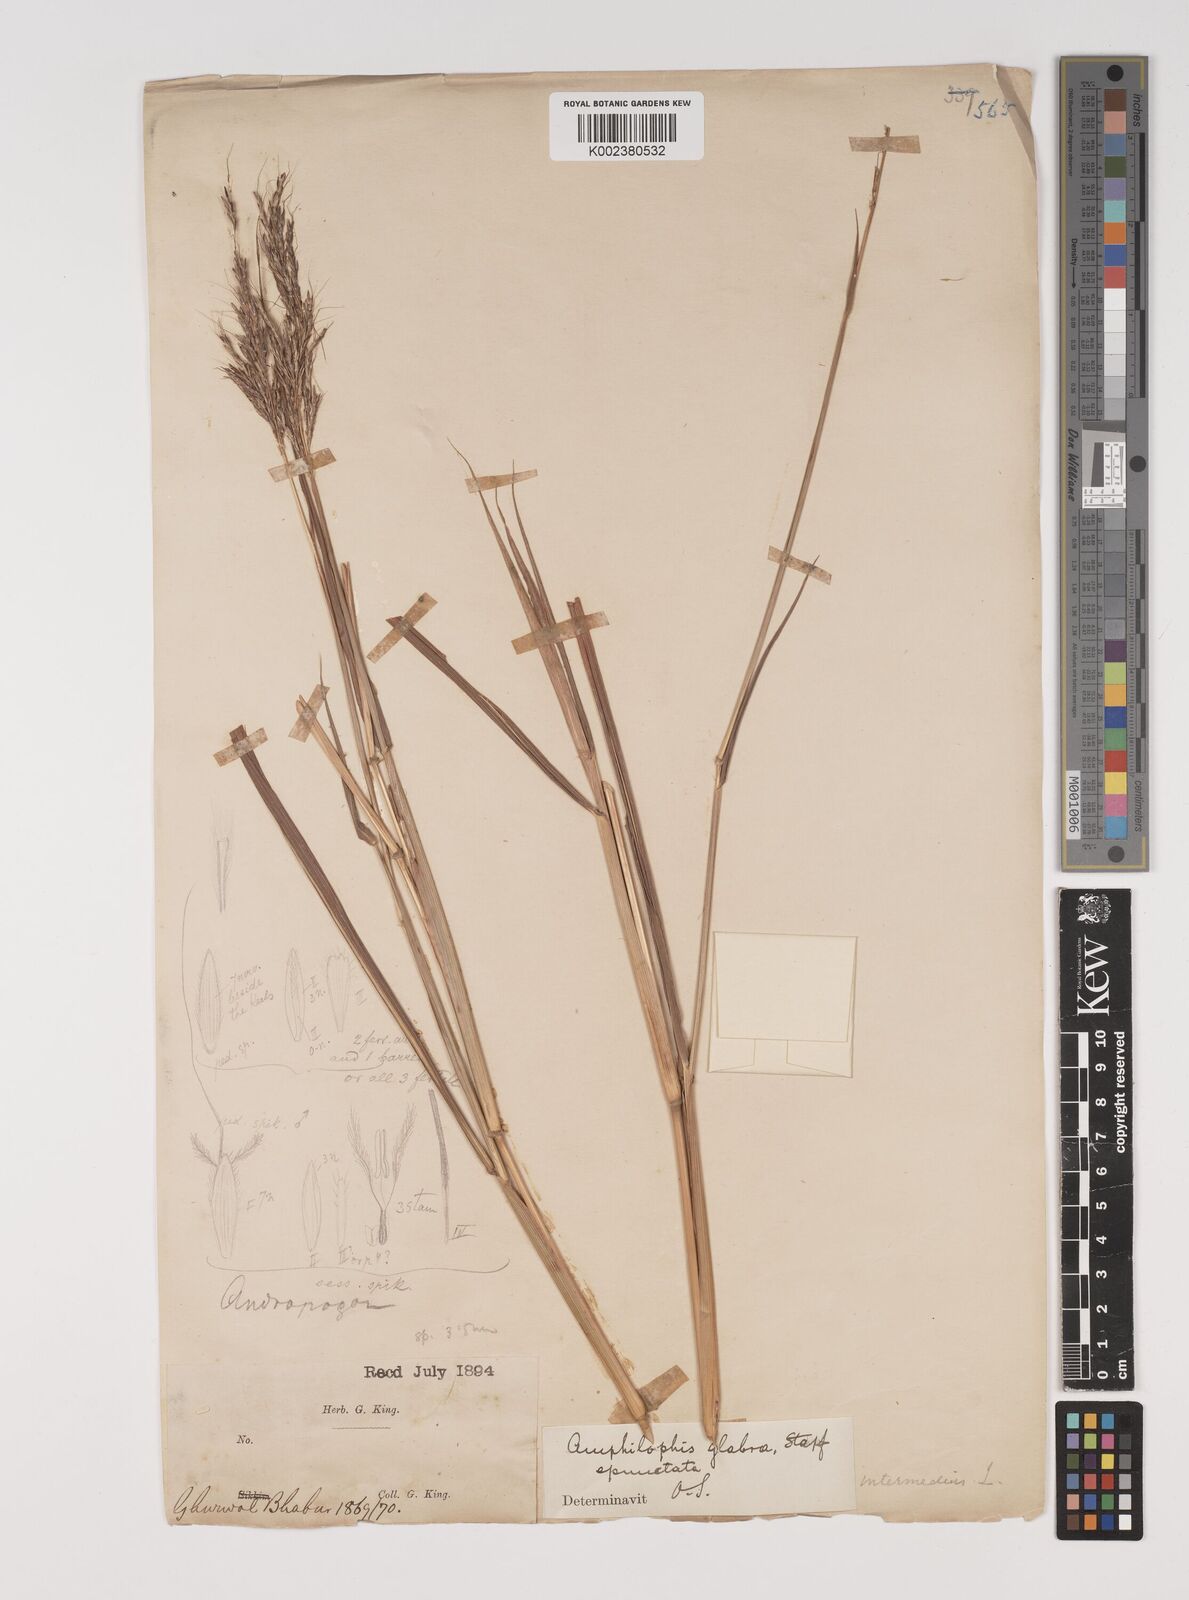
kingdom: Plantae
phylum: Tracheophyta
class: Liliopsida
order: Poales
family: Poaceae
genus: Bothriochloa
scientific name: Bothriochloa bladhii
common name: Caucasian bluestem
